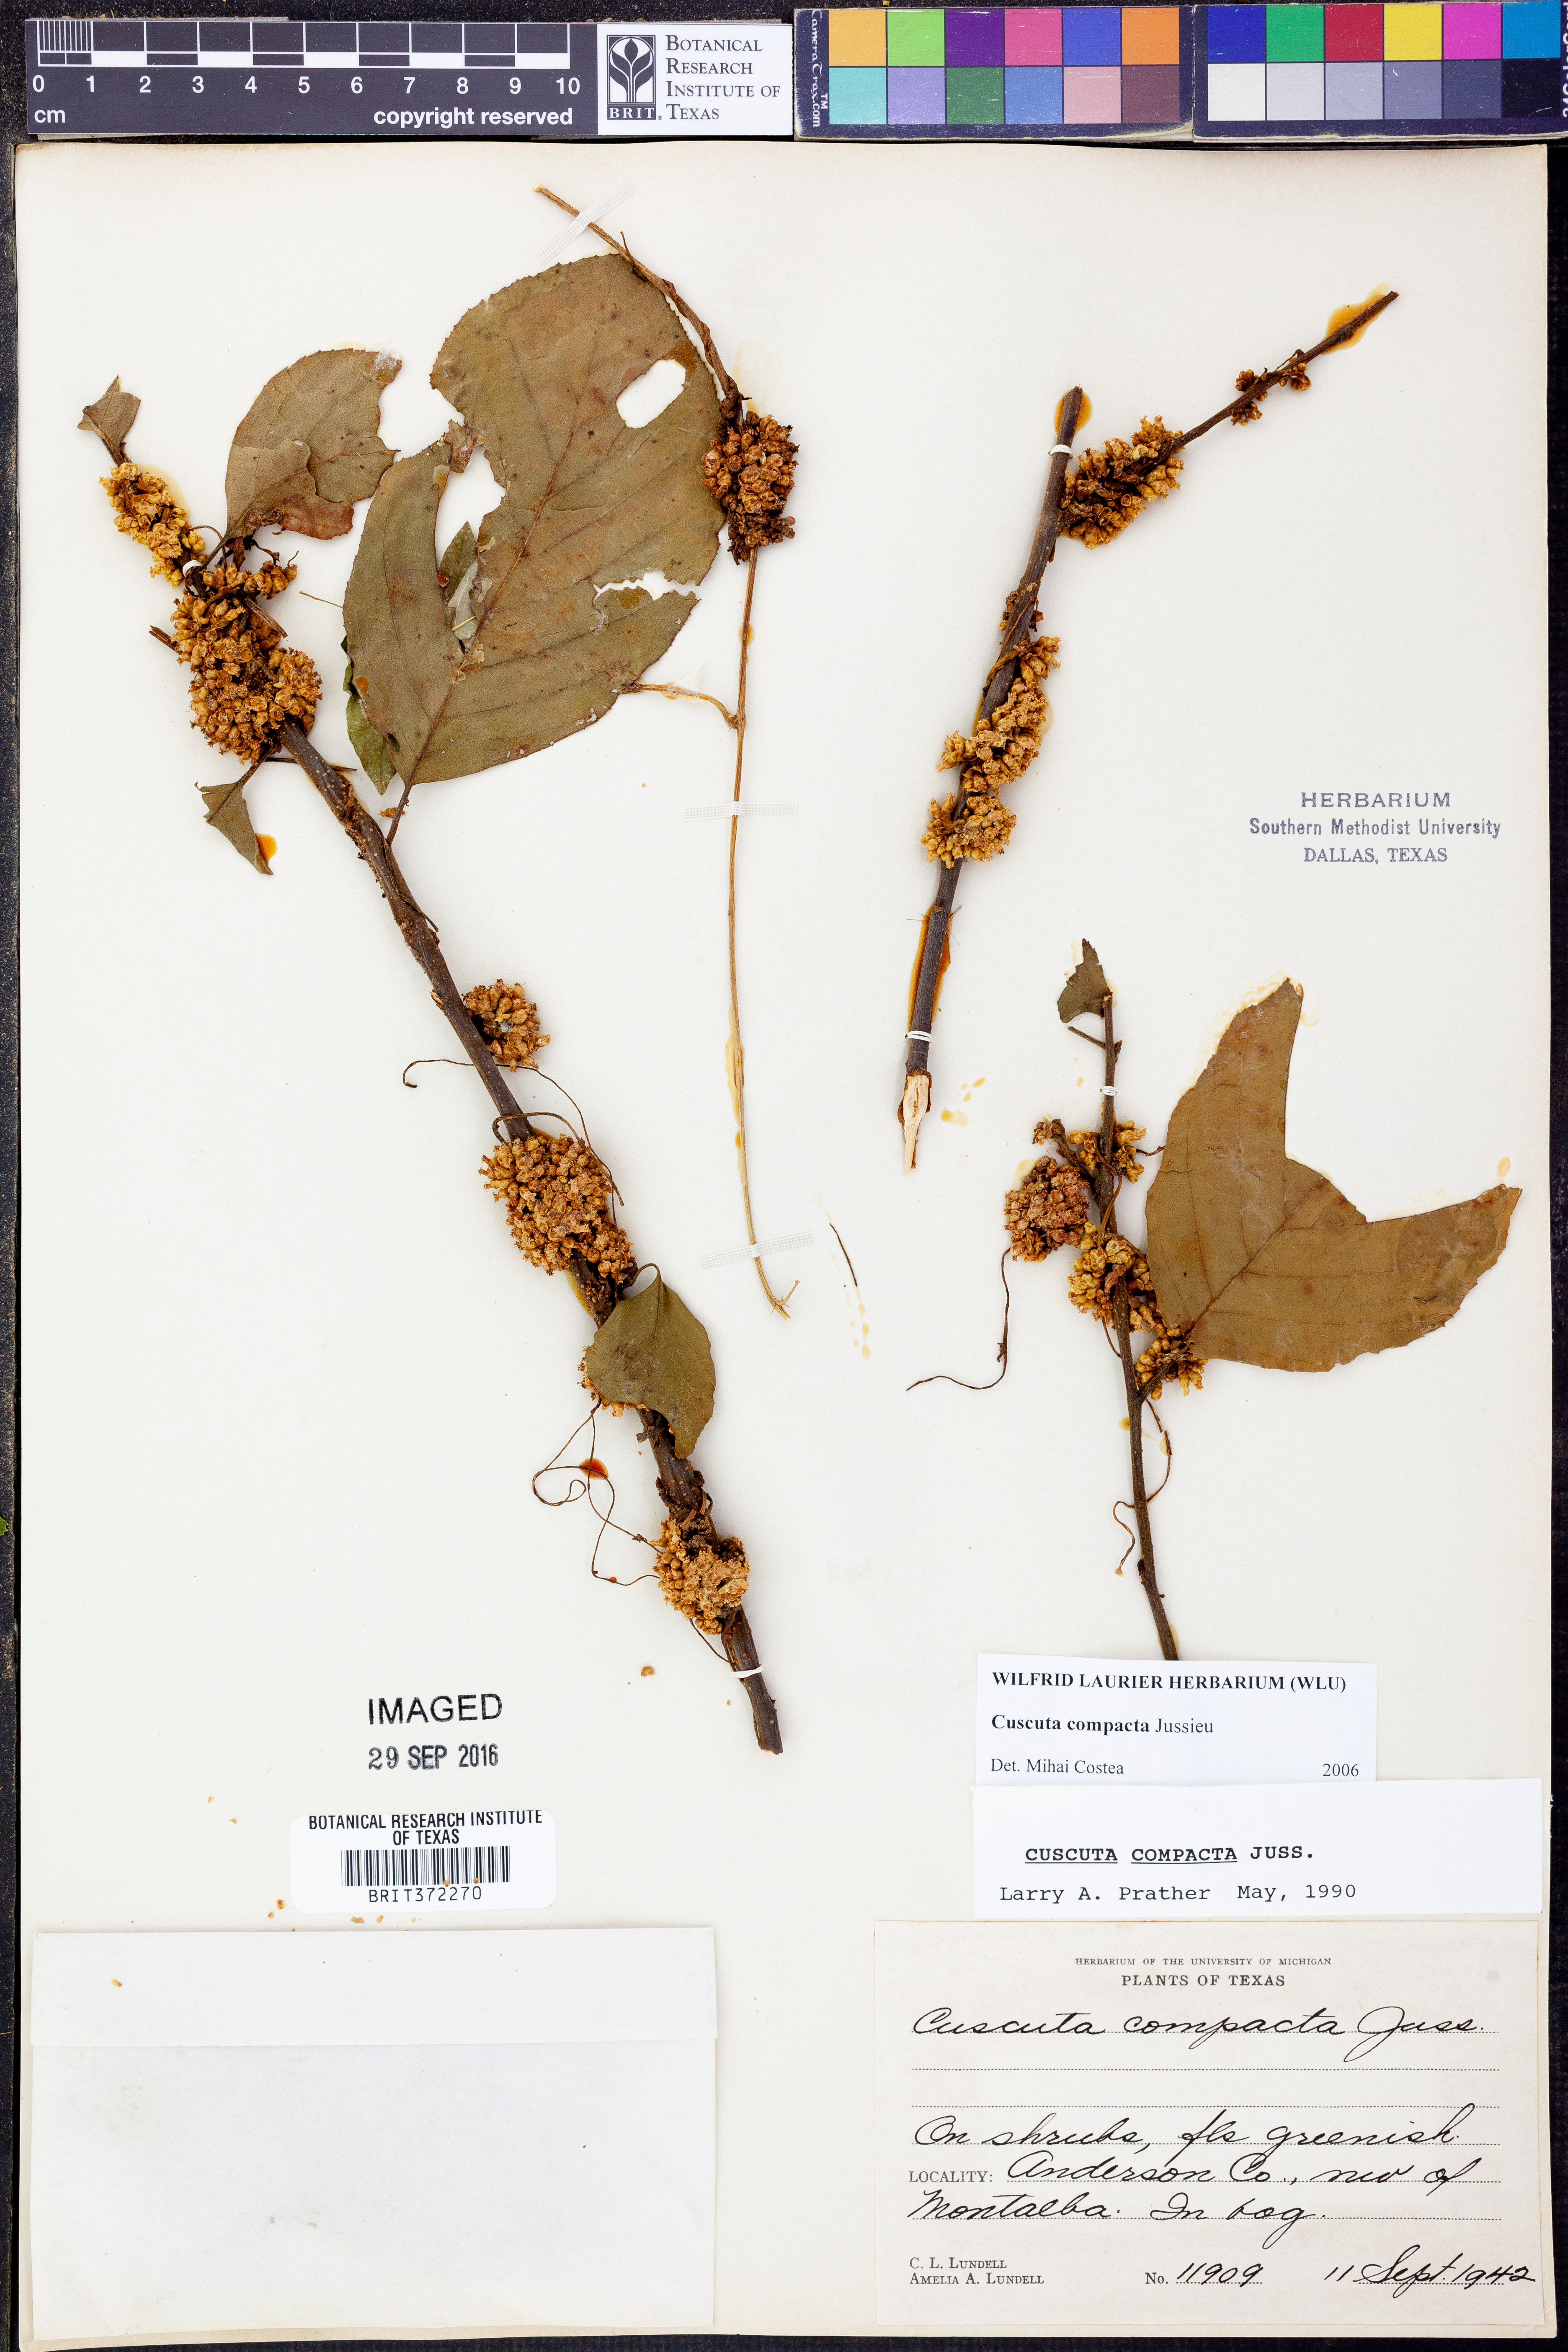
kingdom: Plantae
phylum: Tracheophyta
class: Magnoliopsida
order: Solanales
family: Convolvulaceae
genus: Cuscuta
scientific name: Cuscuta compacta
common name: Compact dodder
